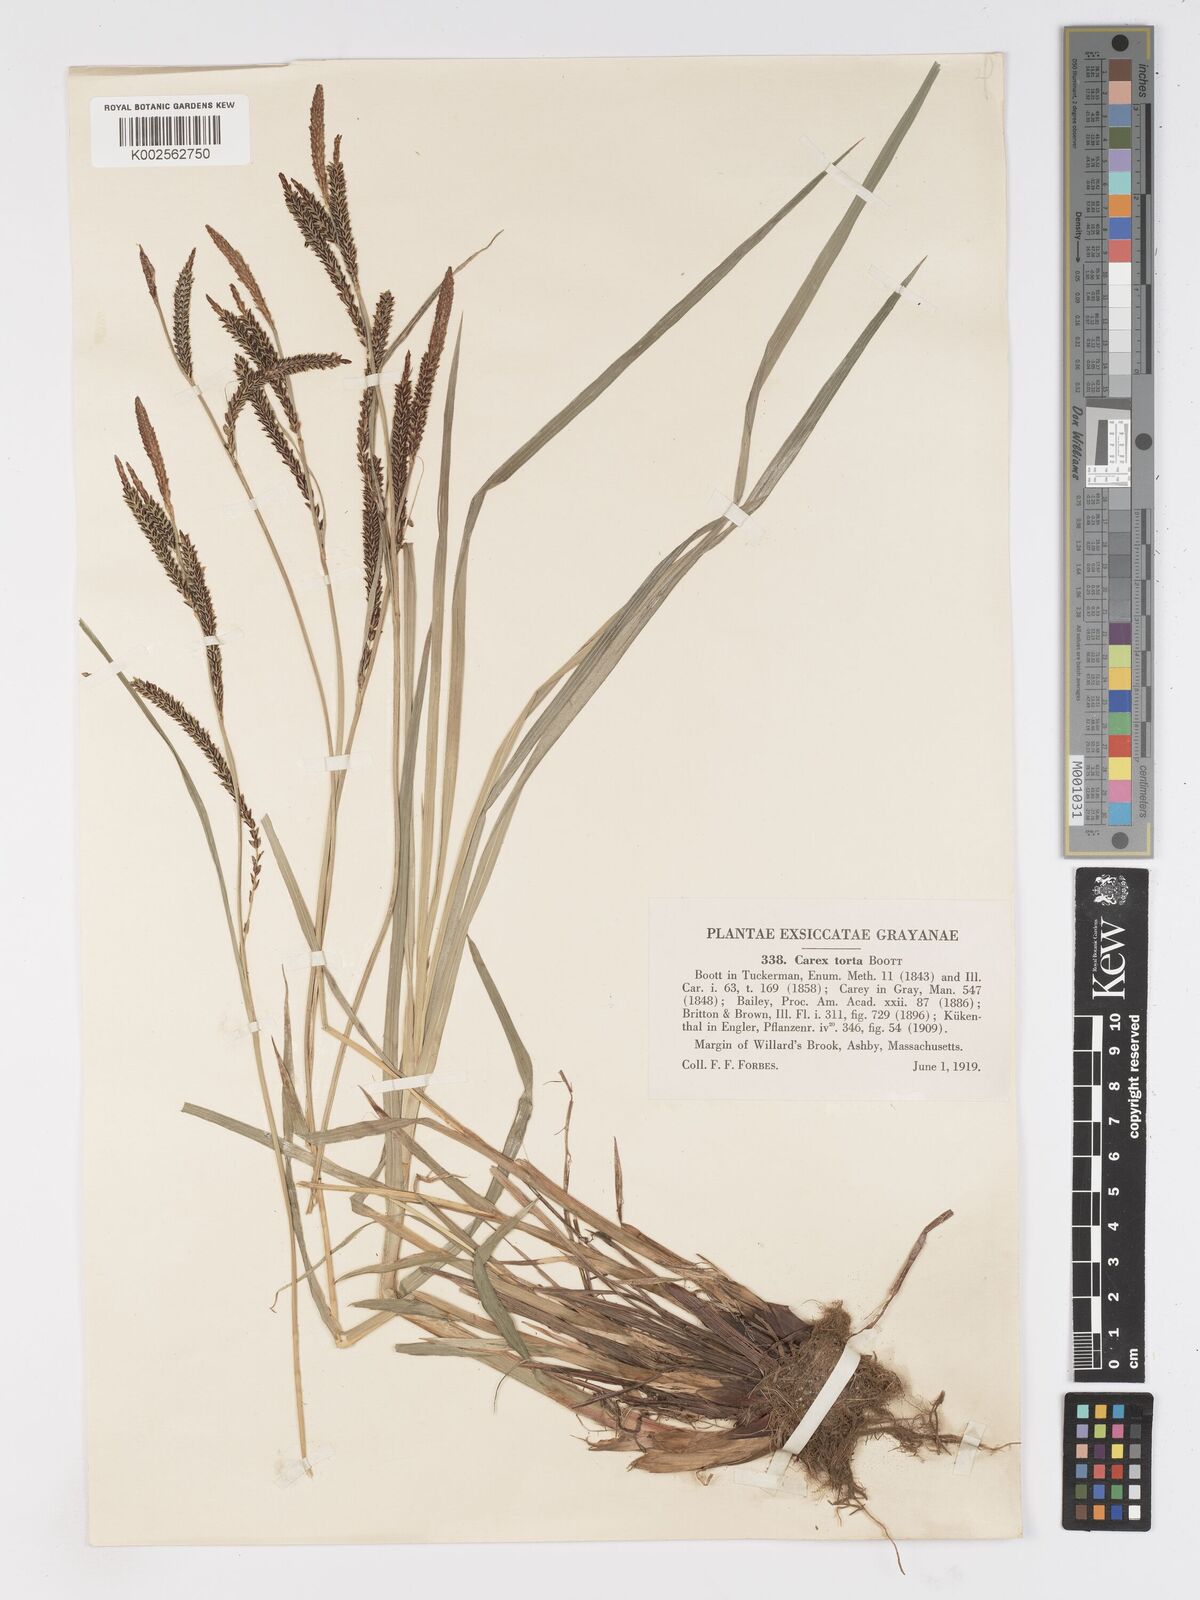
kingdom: Plantae
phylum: Tracheophyta
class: Liliopsida
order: Poales
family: Cyperaceae
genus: Carex
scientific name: Carex torta
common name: Twisted sedge
